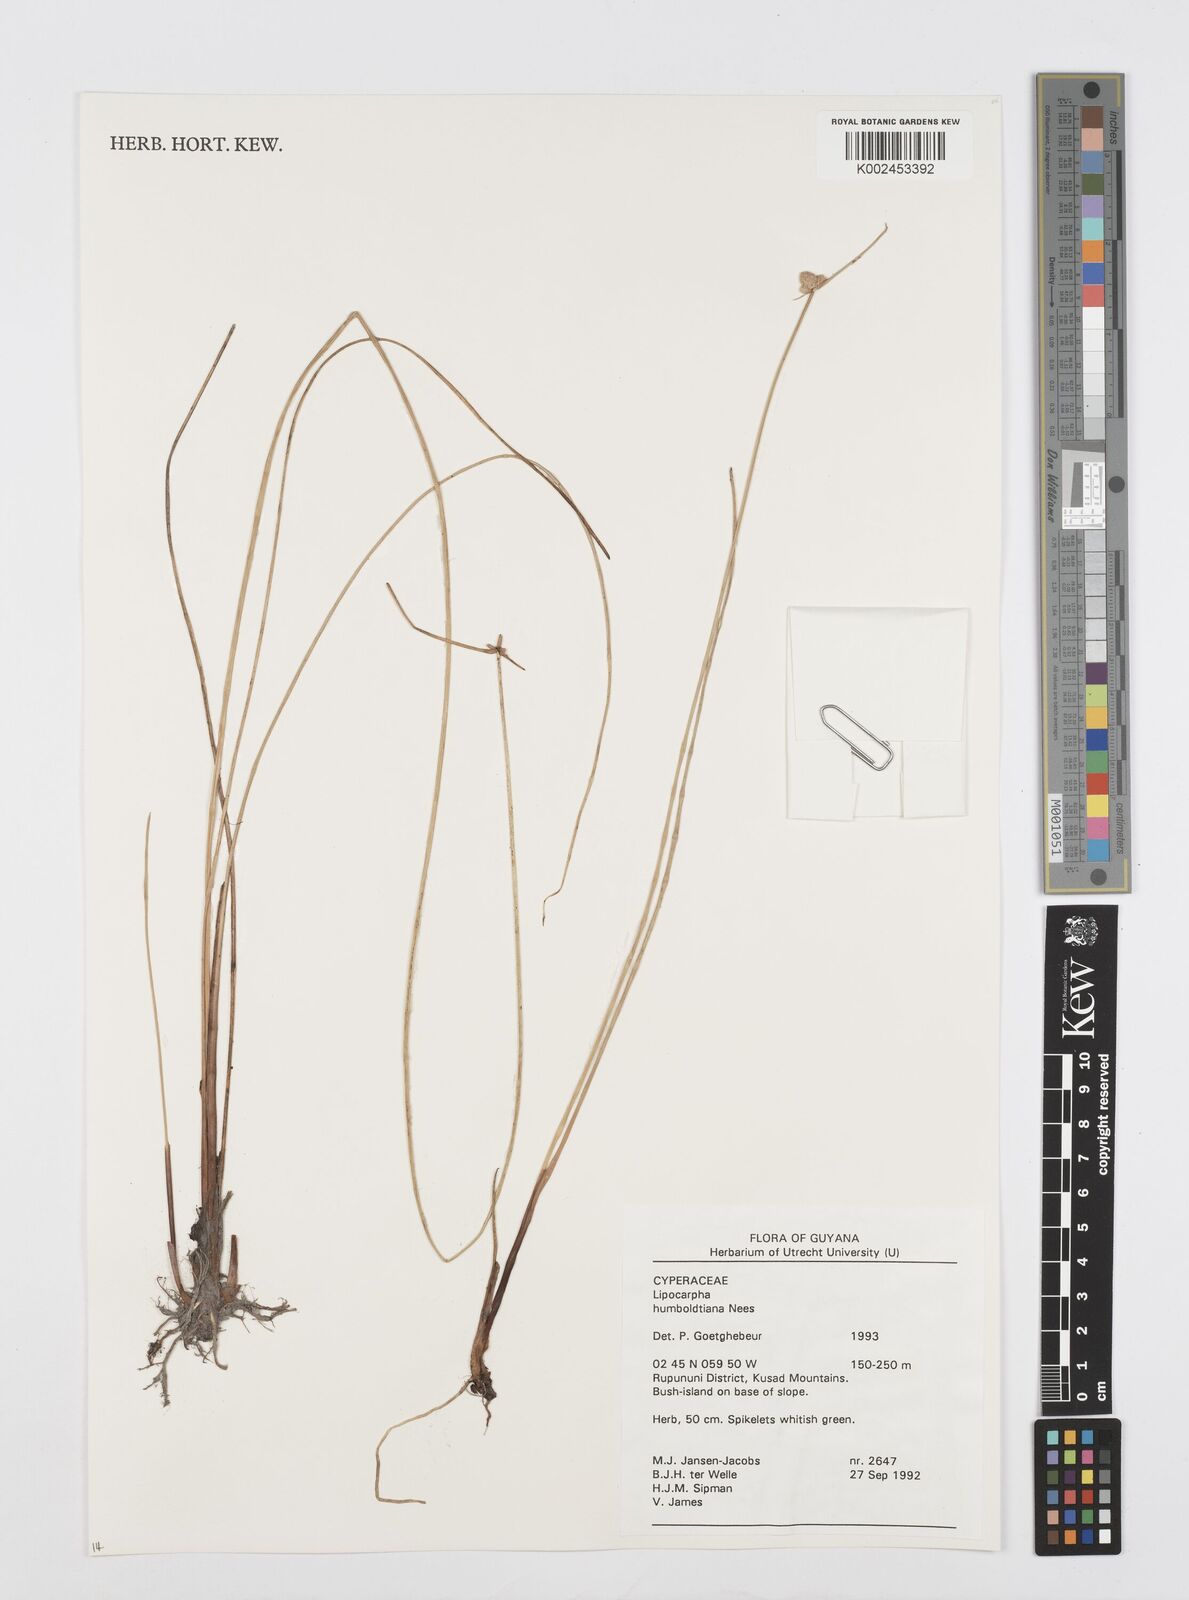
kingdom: Plantae
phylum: Tracheophyta
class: Liliopsida
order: Poales
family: Cyperaceae
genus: Cyperus
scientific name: Cyperus lanceolatus
